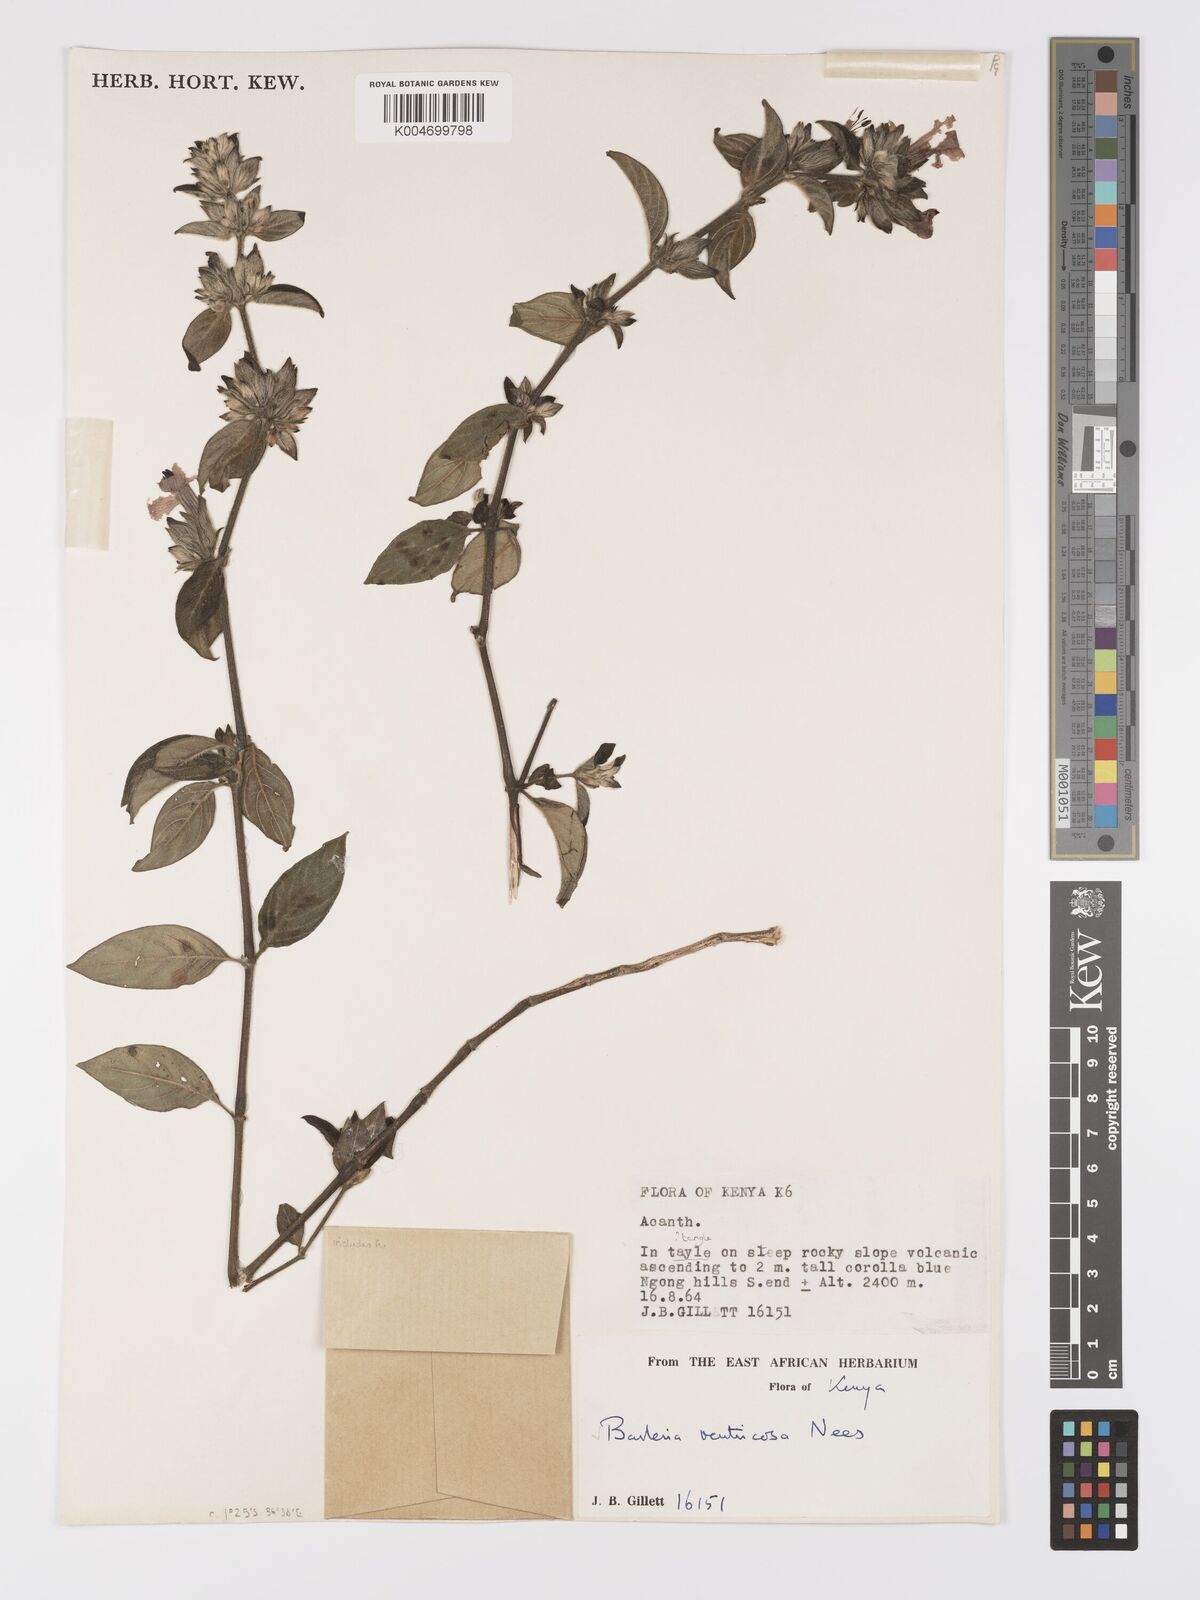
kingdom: Plantae
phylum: Tracheophyta
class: Magnoliopsida
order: Lamiales
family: Acanthaceae
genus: Barleria
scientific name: Barleria ventricosa
